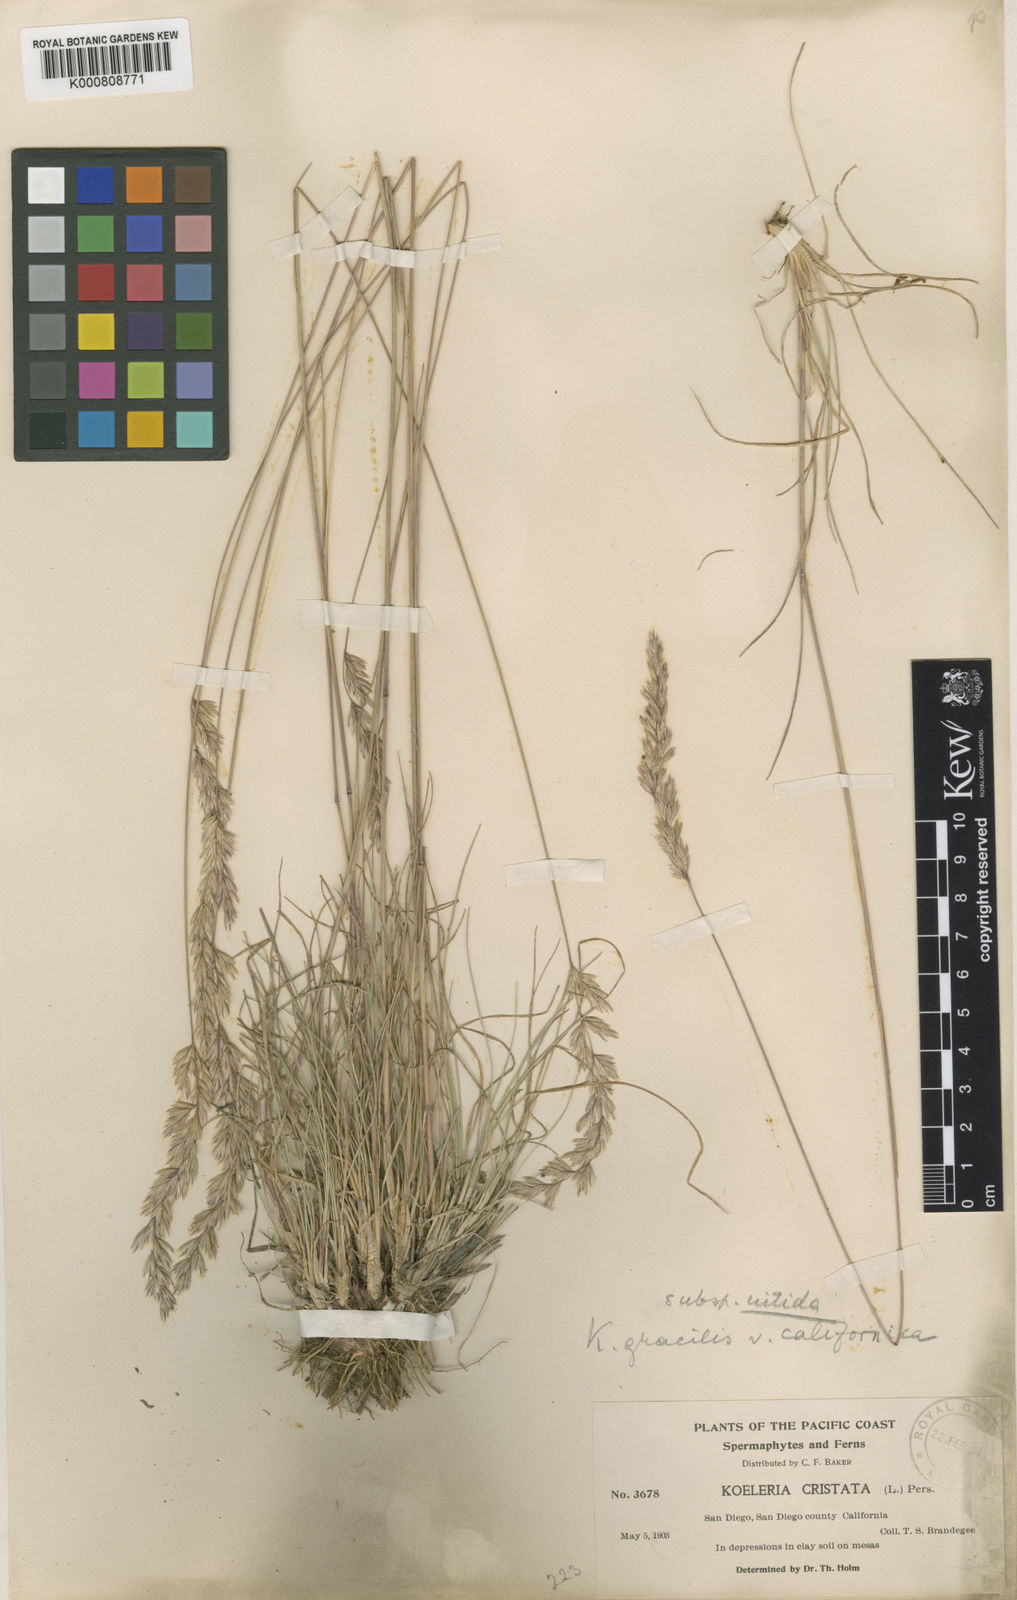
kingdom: Plantae
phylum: Tracheophyta
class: Liliopsida
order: Poales
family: Poaceae
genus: Koeleria
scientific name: Koeleria macrantha
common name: Crested hair-grass
